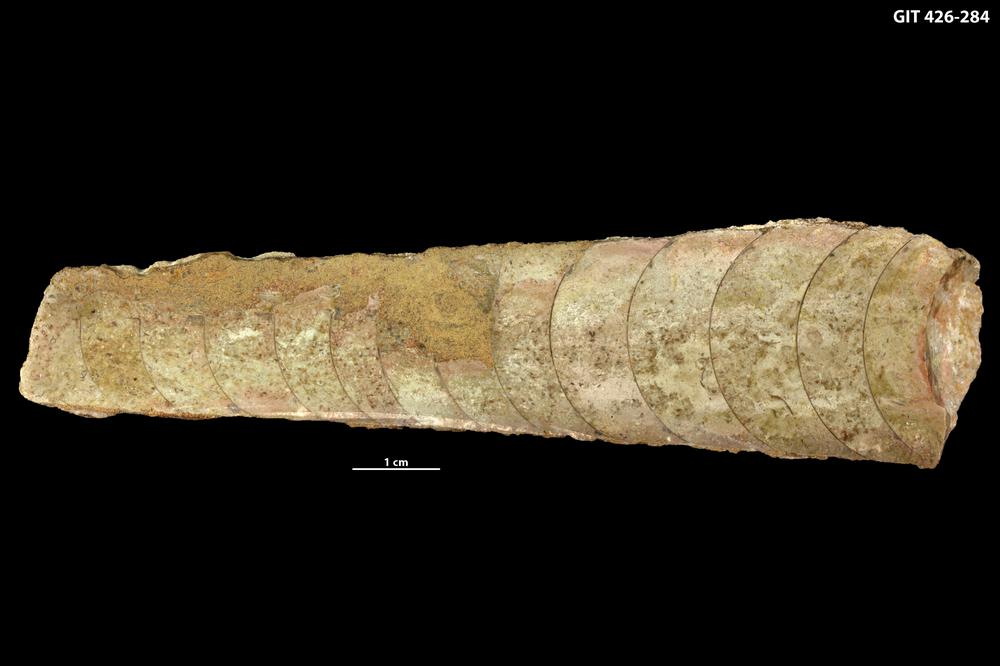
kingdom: Animalia
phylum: Mollusca
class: Cephalopoda
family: Lituitidae
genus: Lituites
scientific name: Lituites
